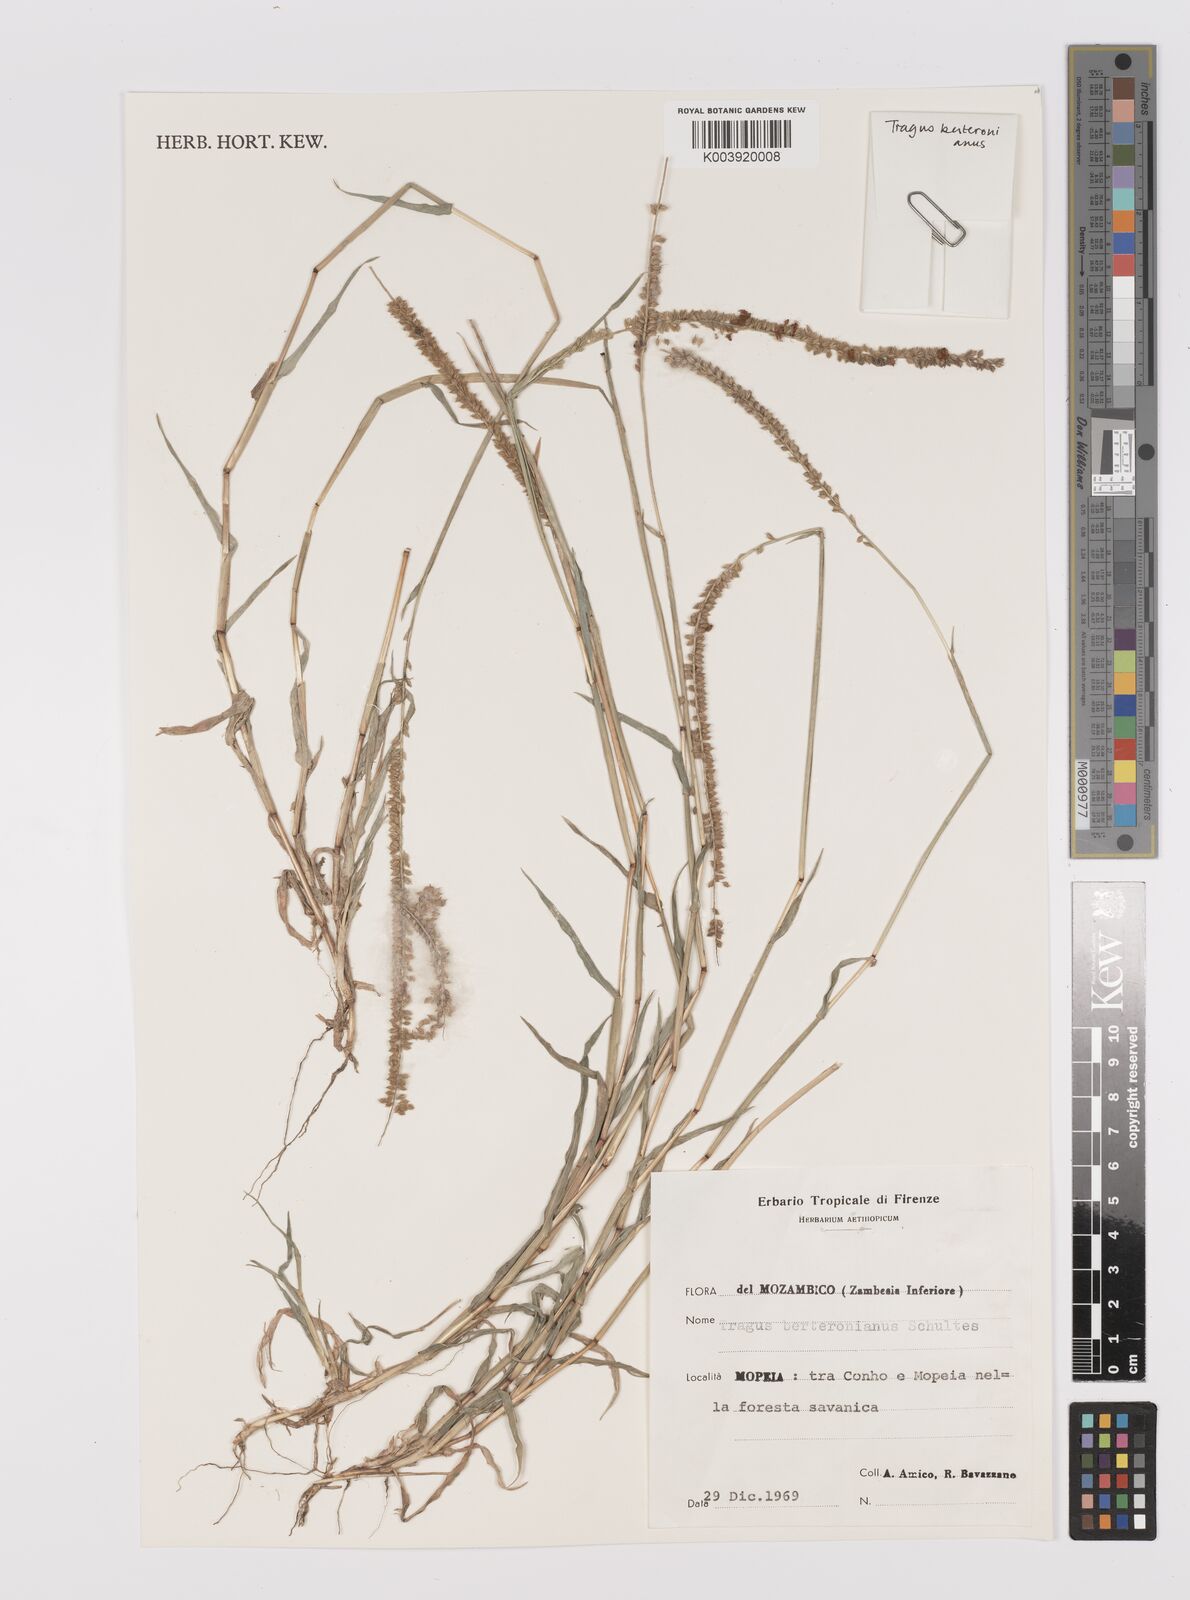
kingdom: Plantae
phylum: Tracheophyta
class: Liliopsida
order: Poales
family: Poaceae
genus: Tragus
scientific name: Tragus berteronianus
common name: African bur-grass
